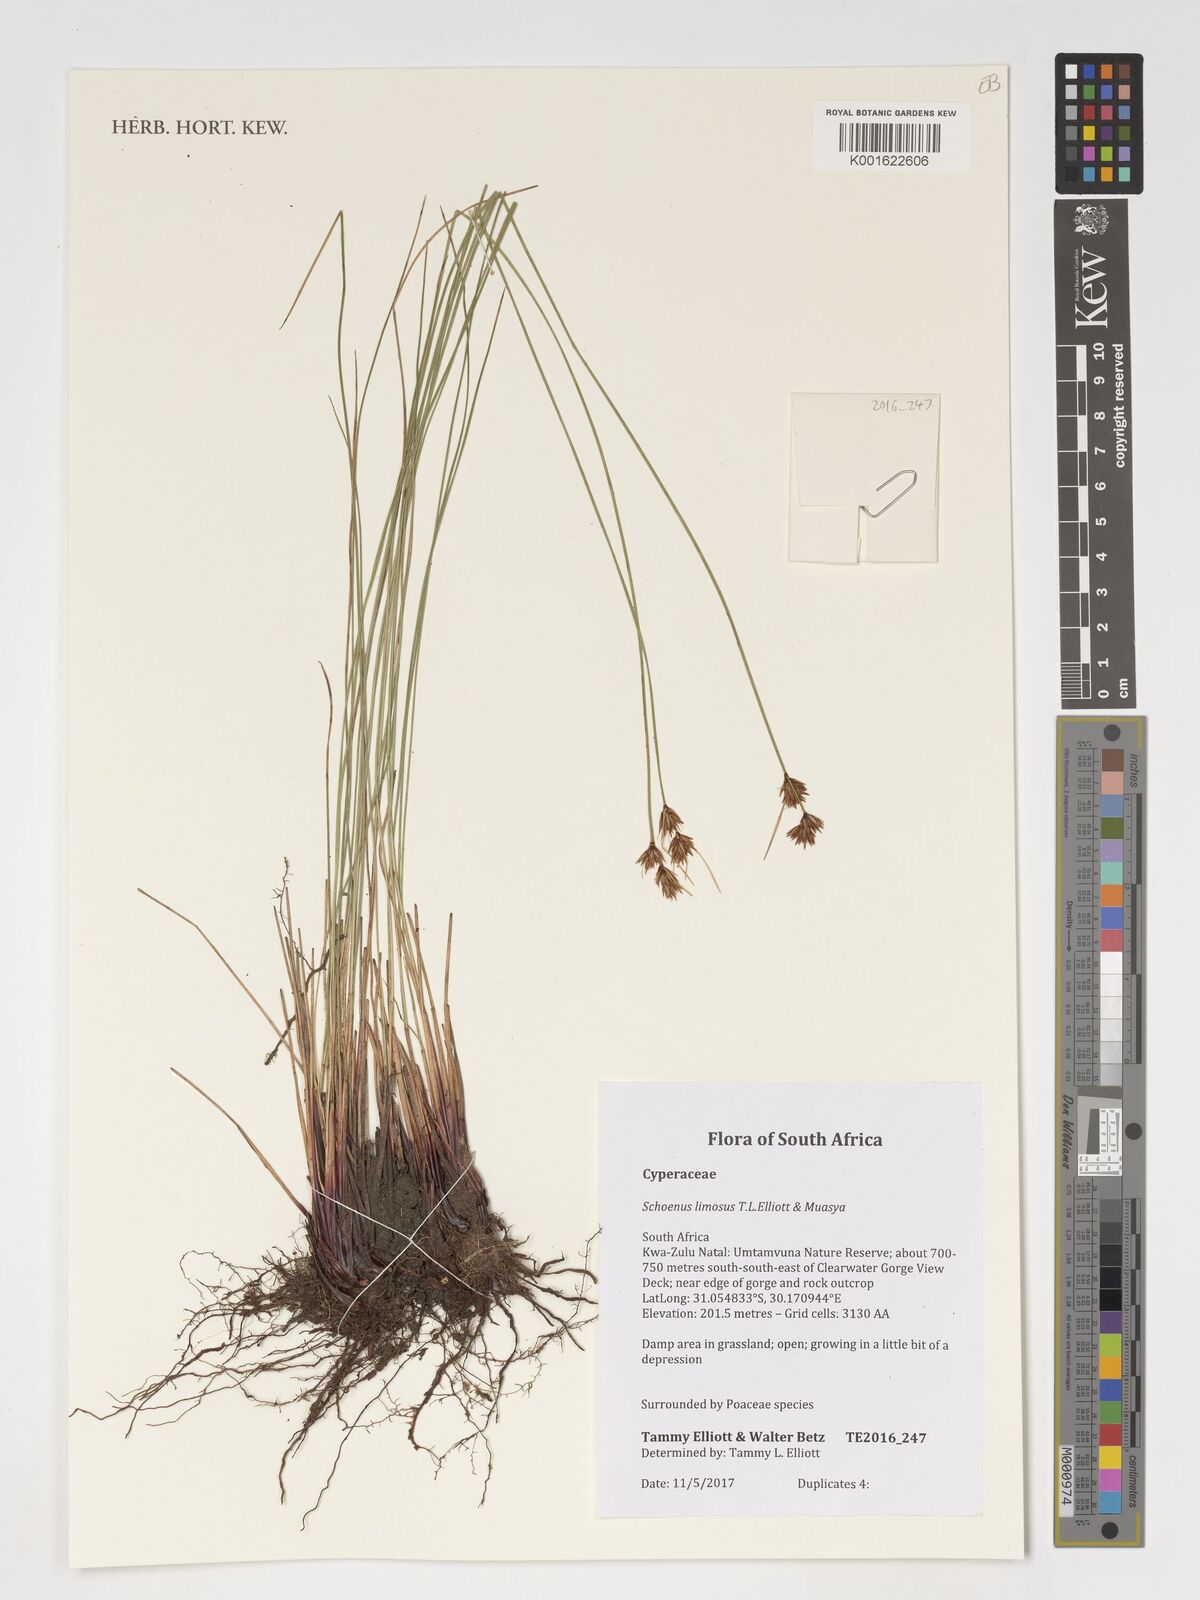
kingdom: Plantae
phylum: Tracheophyta
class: Liliopsida
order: Poales
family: Cyperaceae
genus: Schoenus
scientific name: Schoenus limosus
